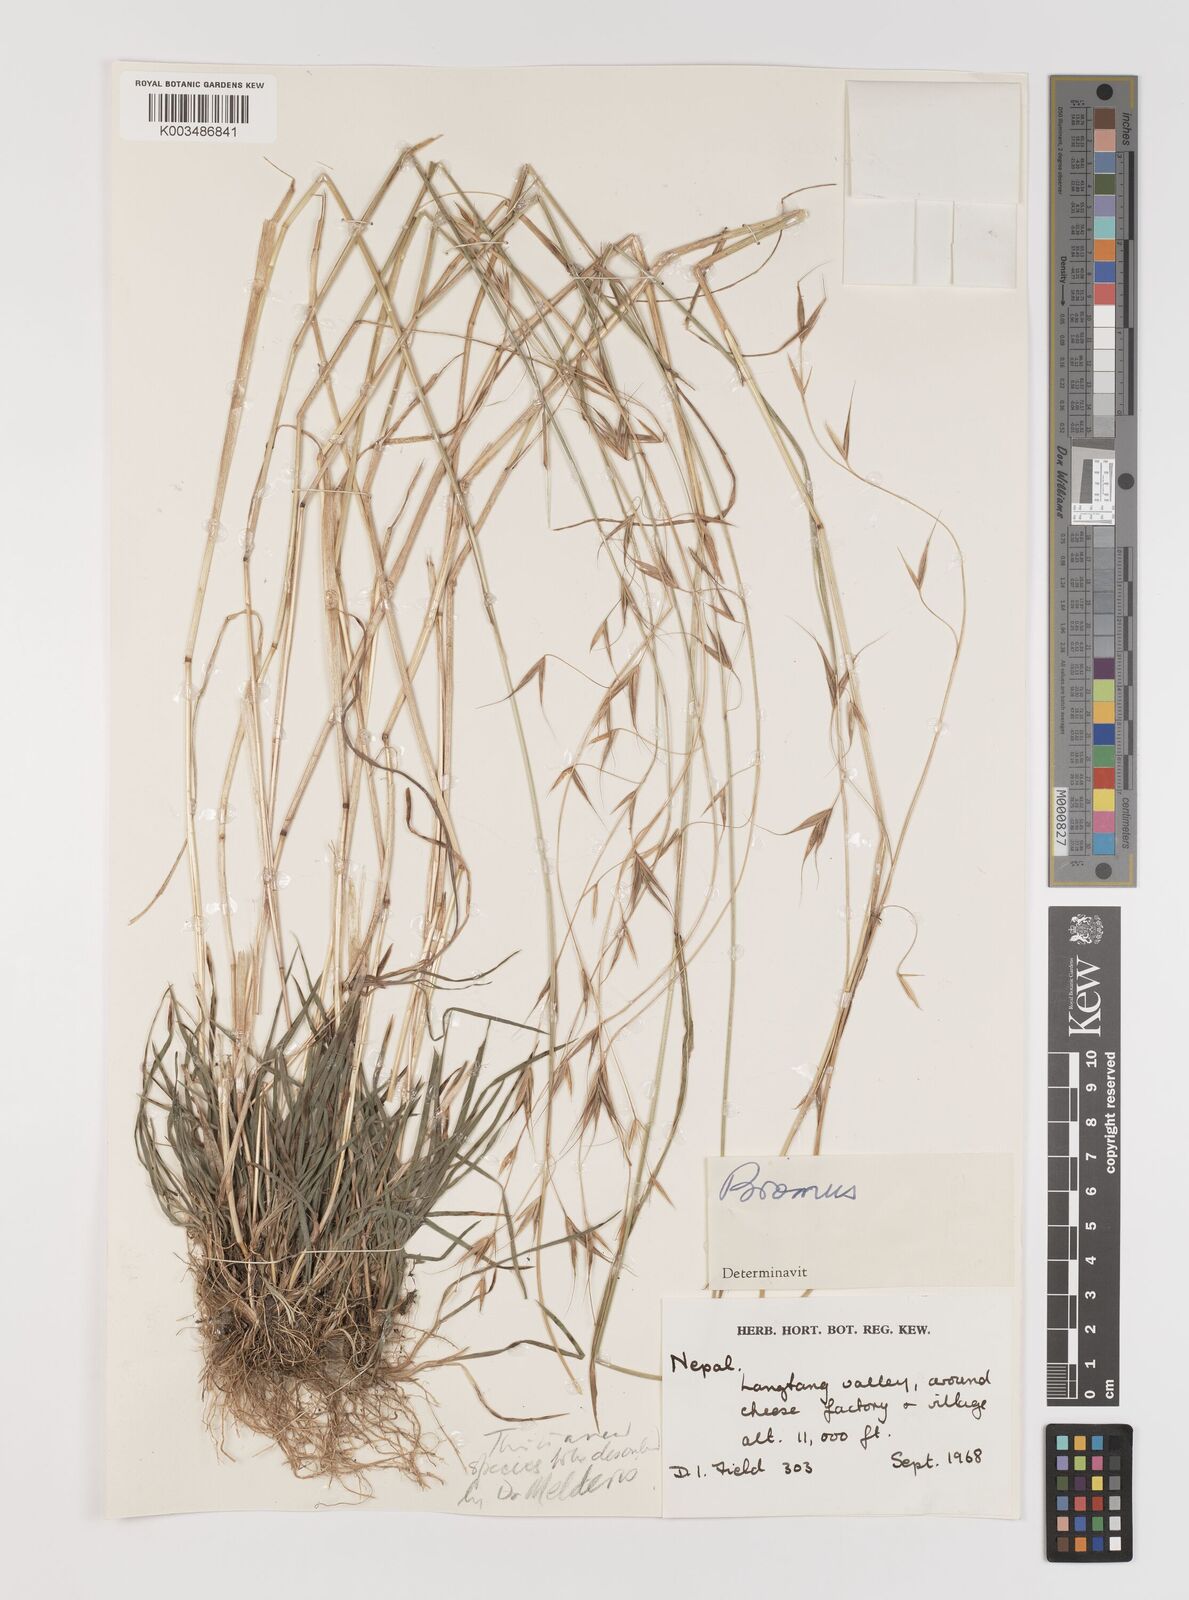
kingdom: Plantae
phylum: Tracheophyta
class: Liliopsida
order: Poales
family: Poaceae
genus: Bromus
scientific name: Bromus
